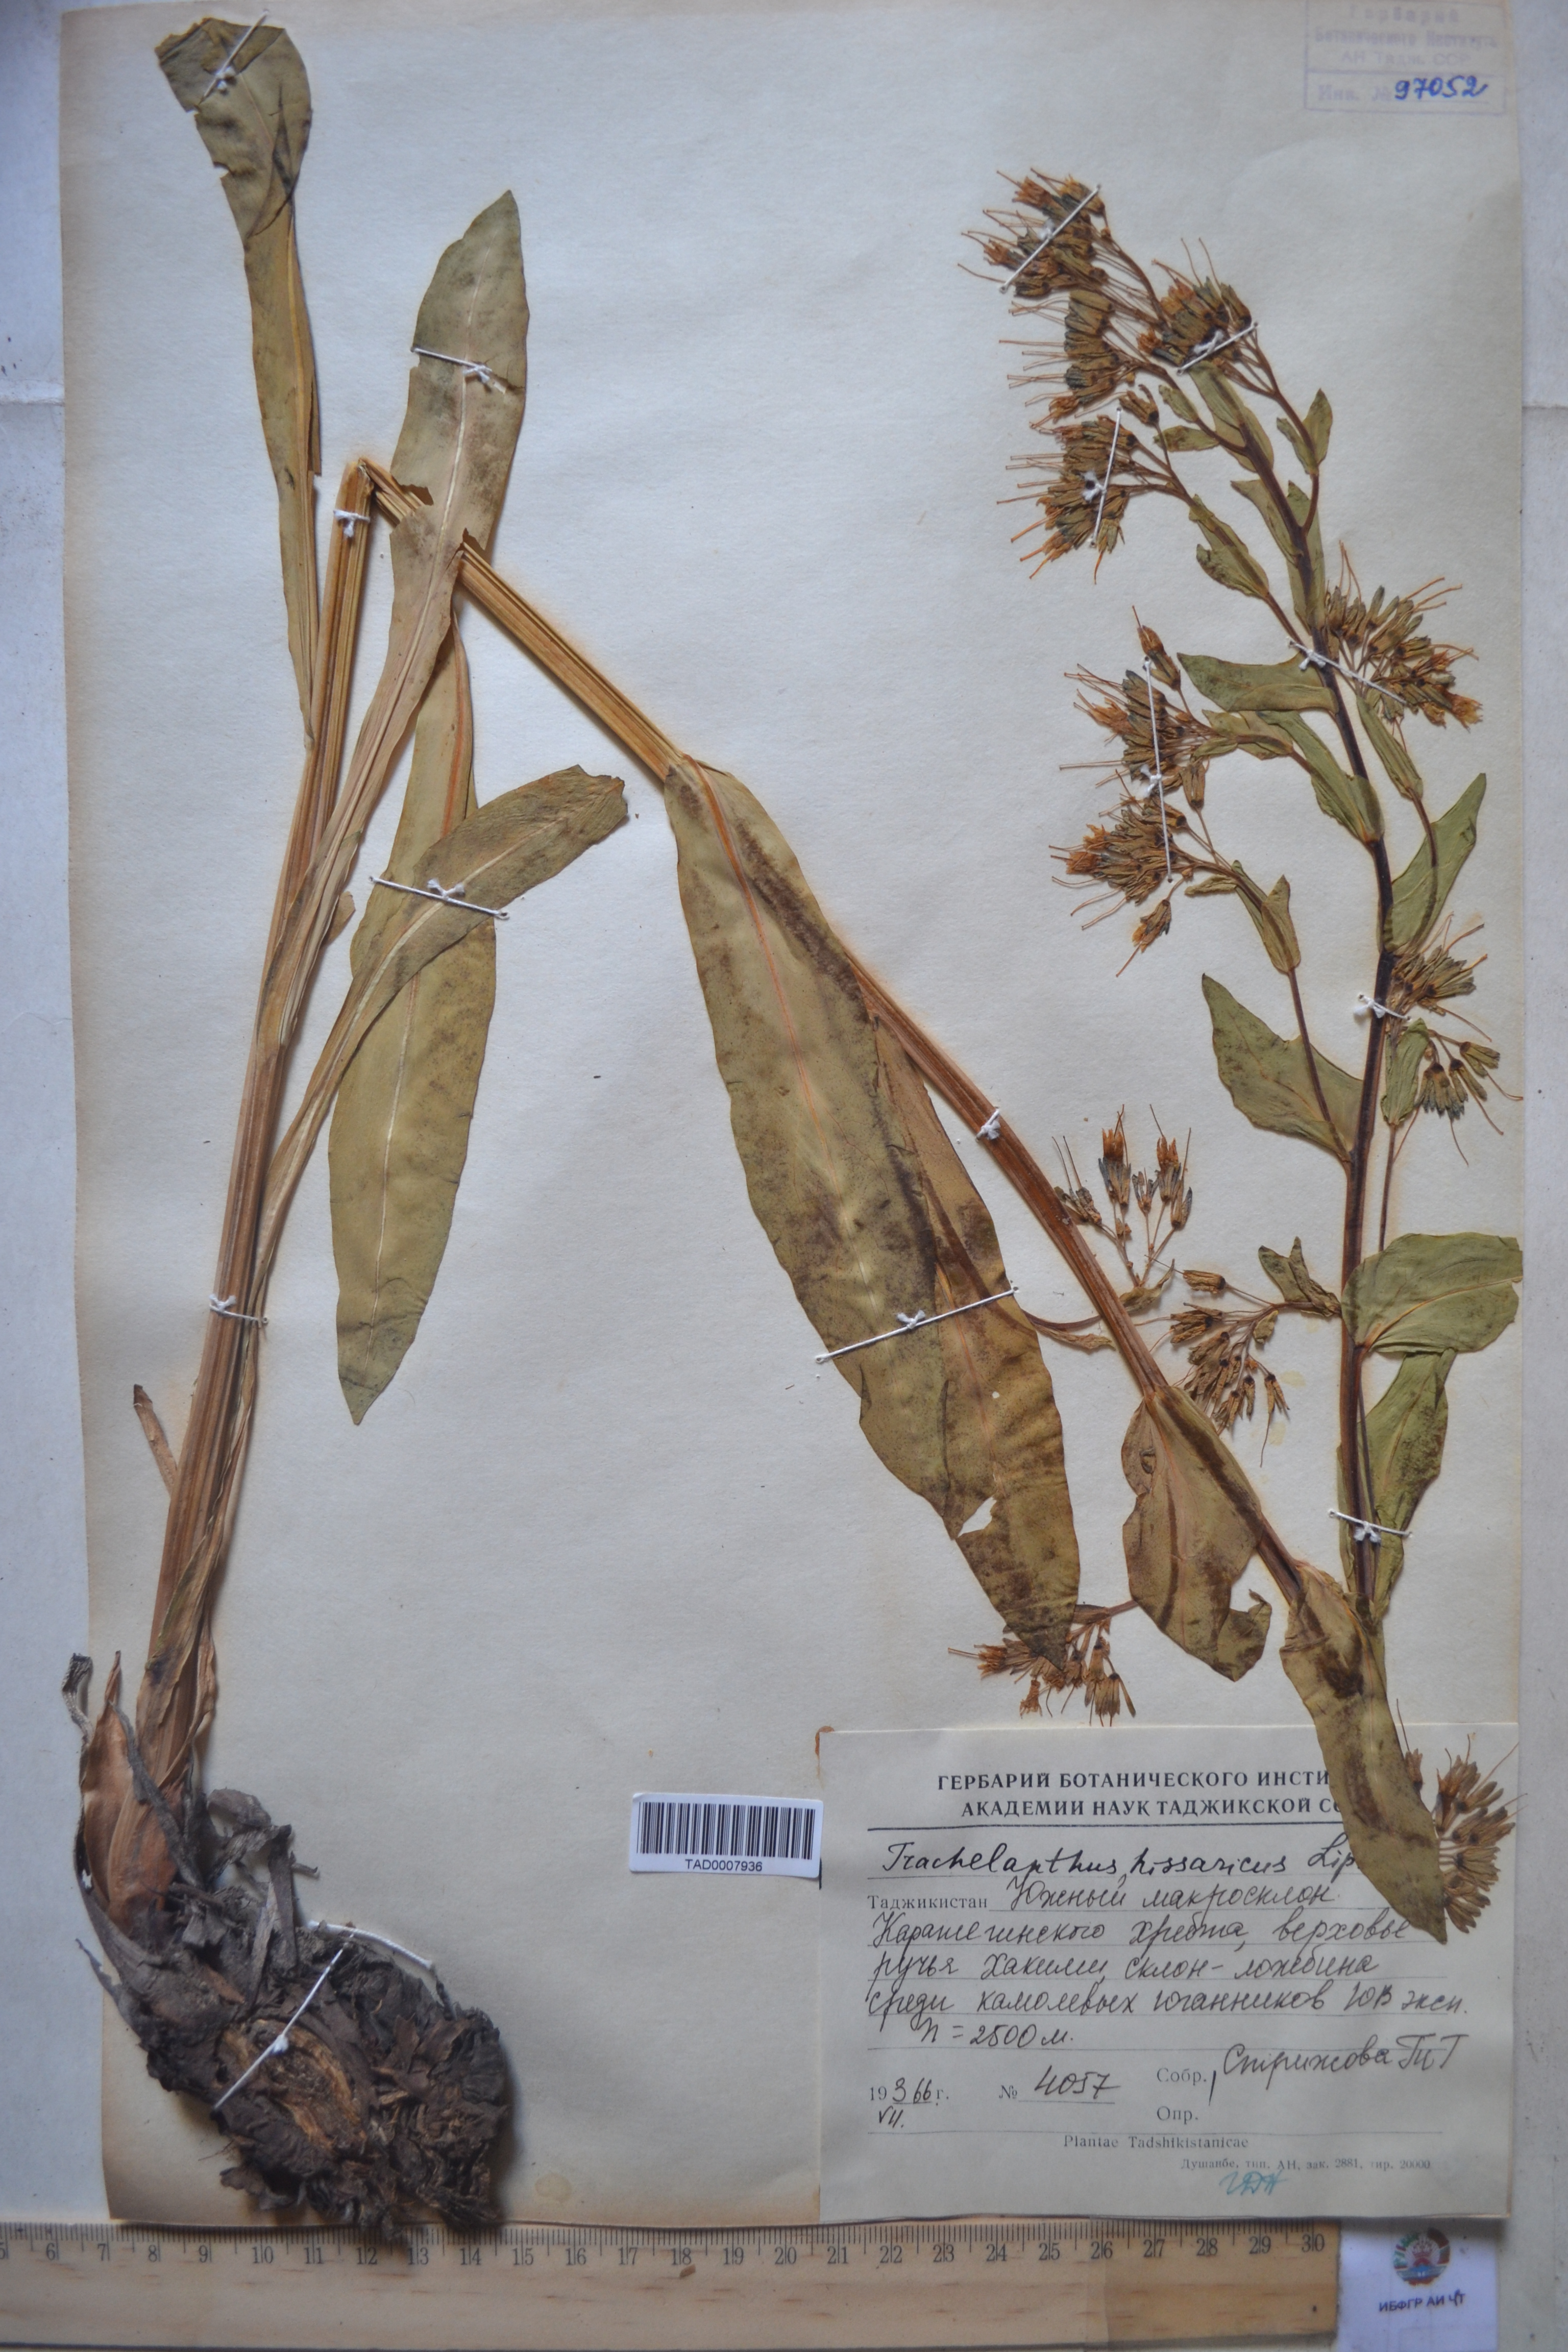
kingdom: Plantae
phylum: Tracheophyta
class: Magnoliopsida
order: Boraginales
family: Boraginaceae
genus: Lindelofia
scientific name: Lindelofia hissarica
